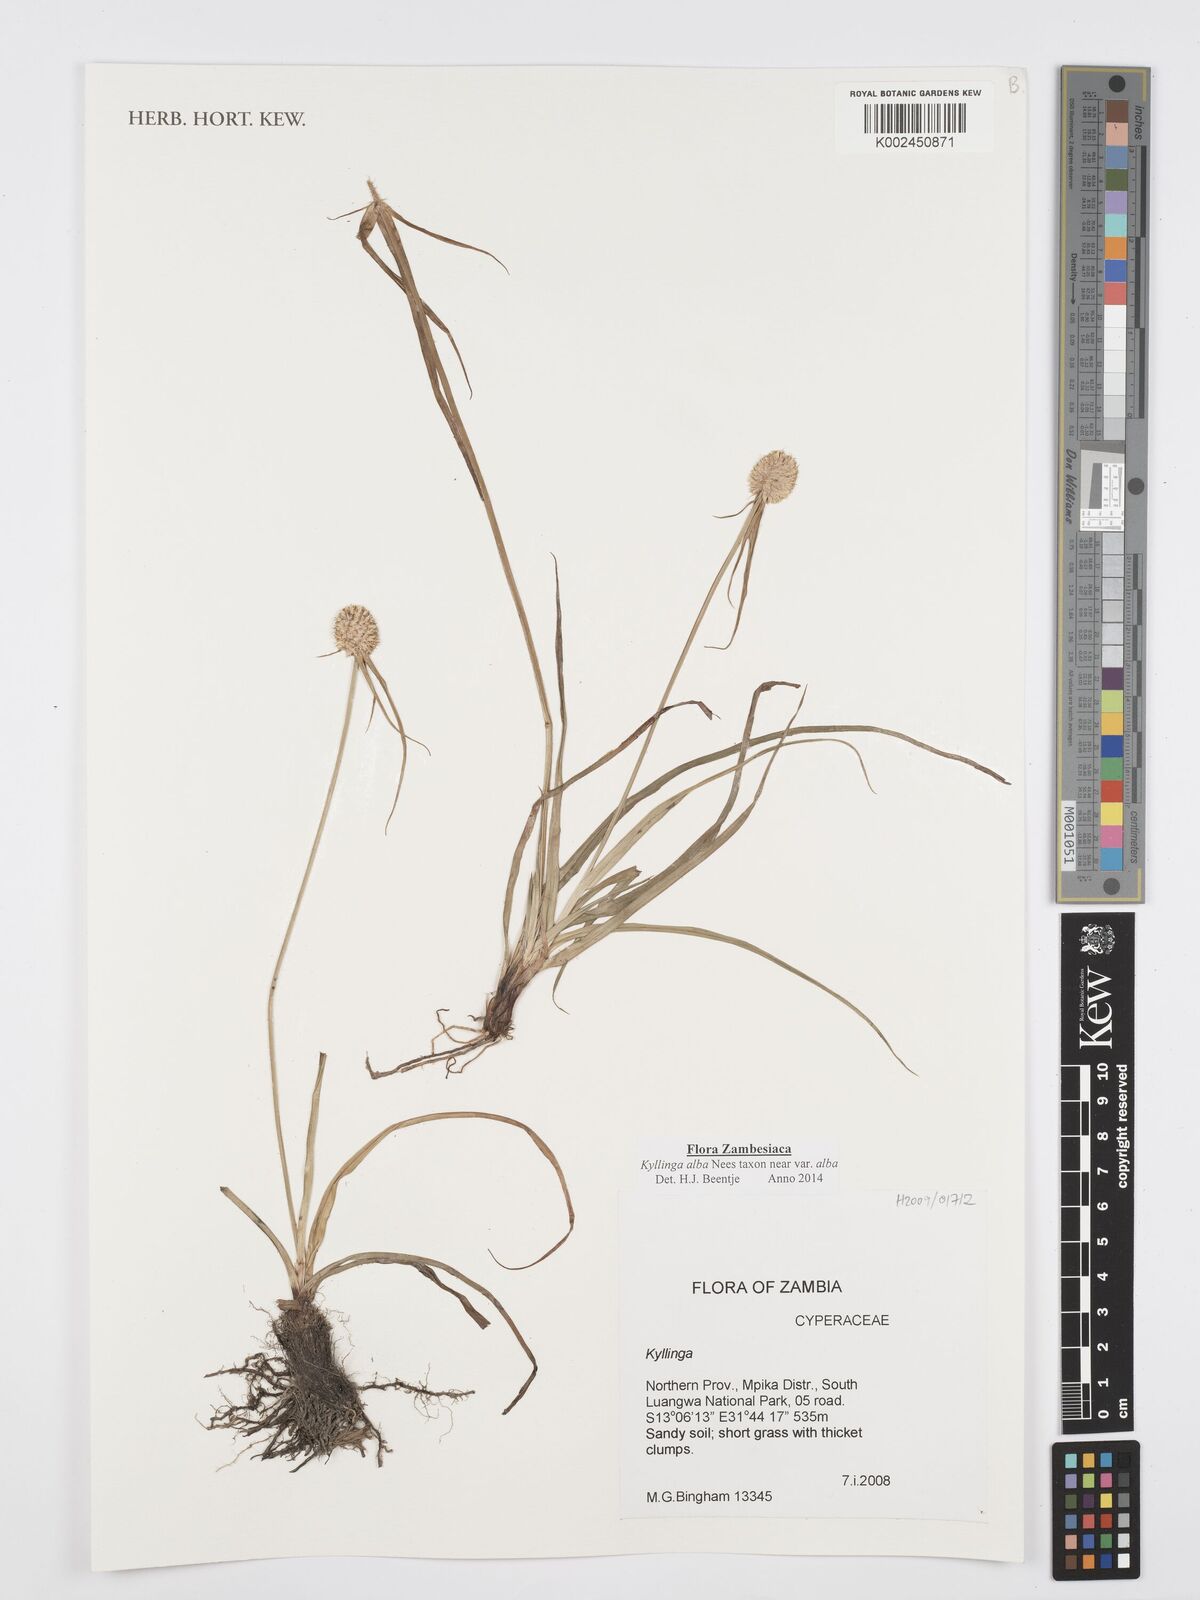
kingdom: Plantae
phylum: Tracheophyta
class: Liliopsida
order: Poales
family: Cyperaceae
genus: Cyperus
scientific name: Cyperus
